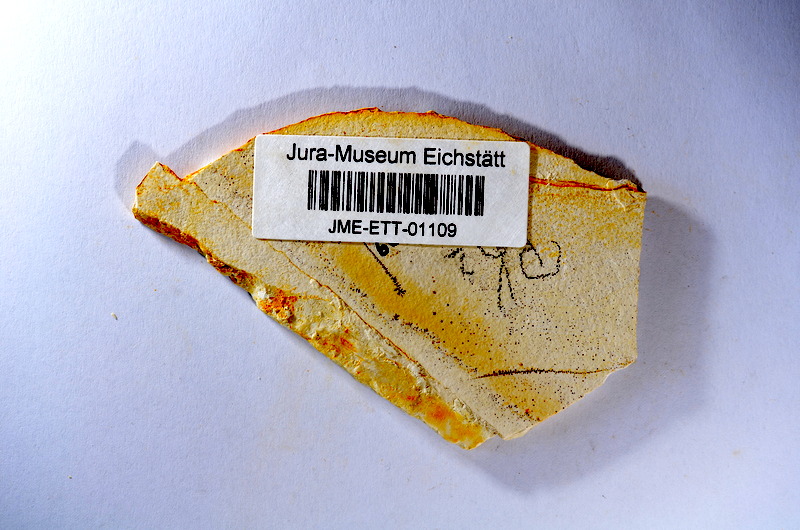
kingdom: Animalia
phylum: Chordata
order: Salmoniformes
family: Orthogonikleithridae
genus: Orthogonikleithrus
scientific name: Orthogonikleithrus hoelli
